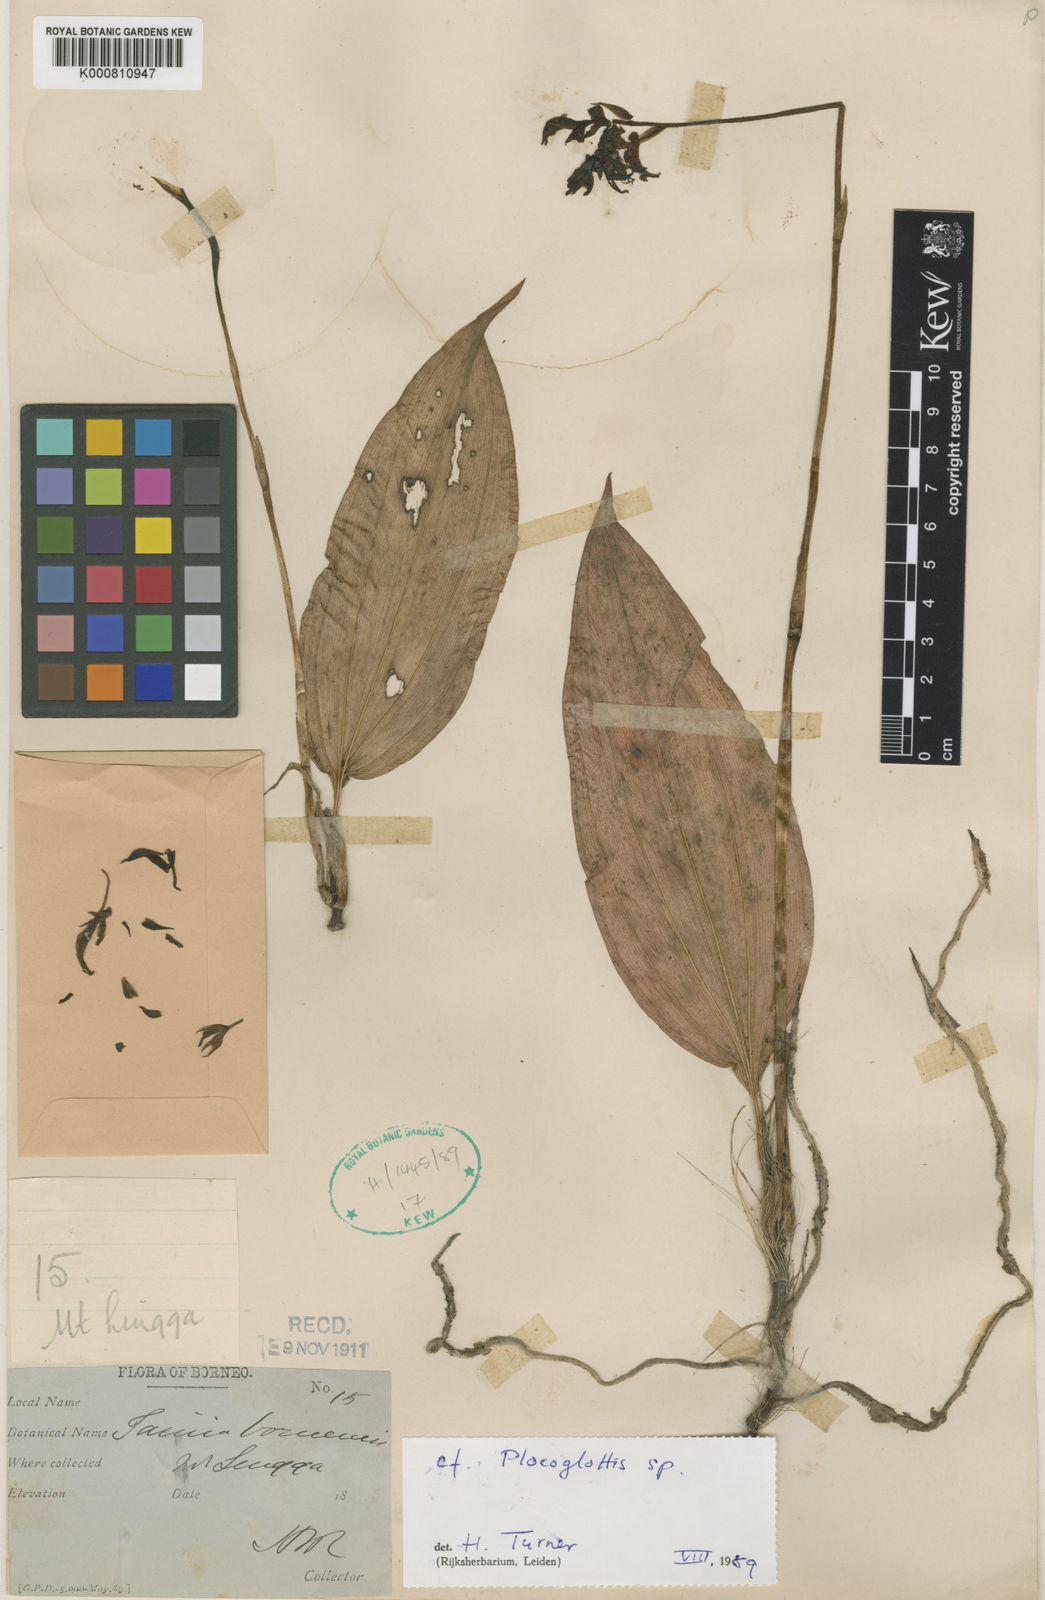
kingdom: Plantae
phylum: Tracheophyta
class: Liliopsida
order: Asparagales
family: Orchidaceae
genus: Plocoglottis
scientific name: Plocoglottis borneensis
